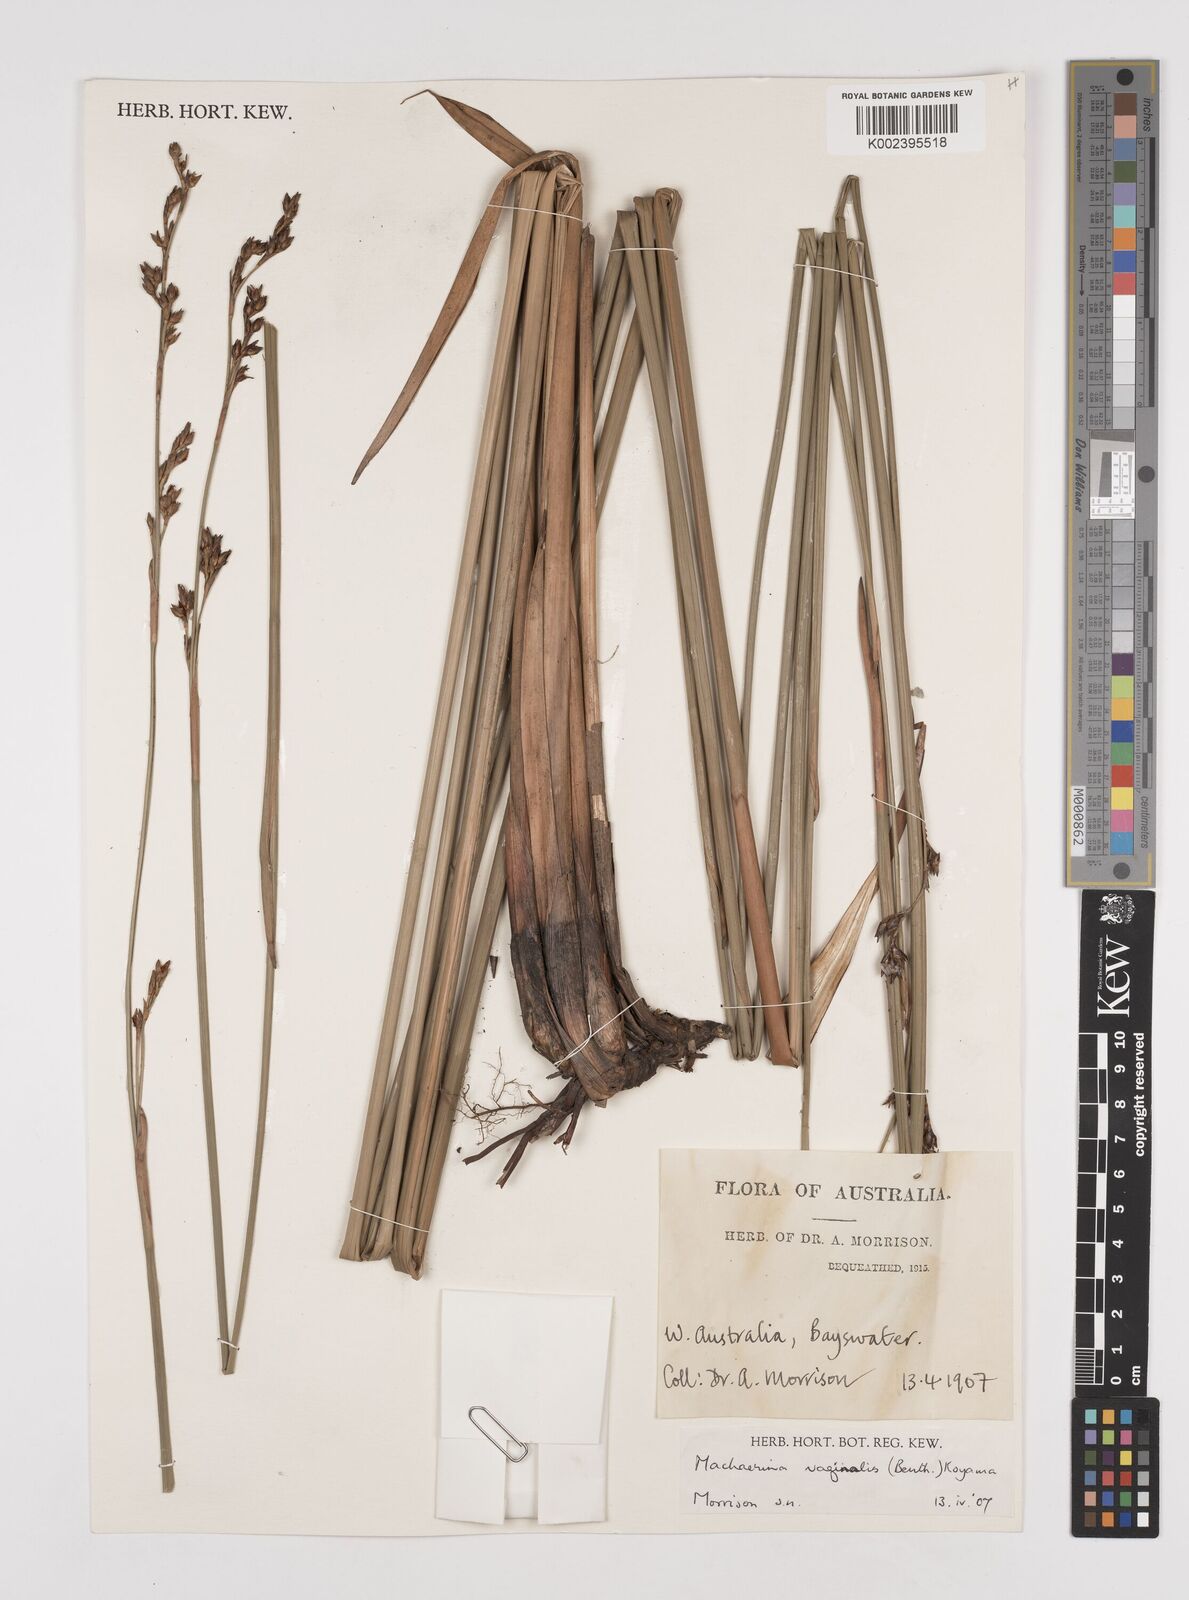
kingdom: Plantae
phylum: Tracheophyta
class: Liliopsida
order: Poales
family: Cyperaceae
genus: Machaerina
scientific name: Machaerina vaginalis
